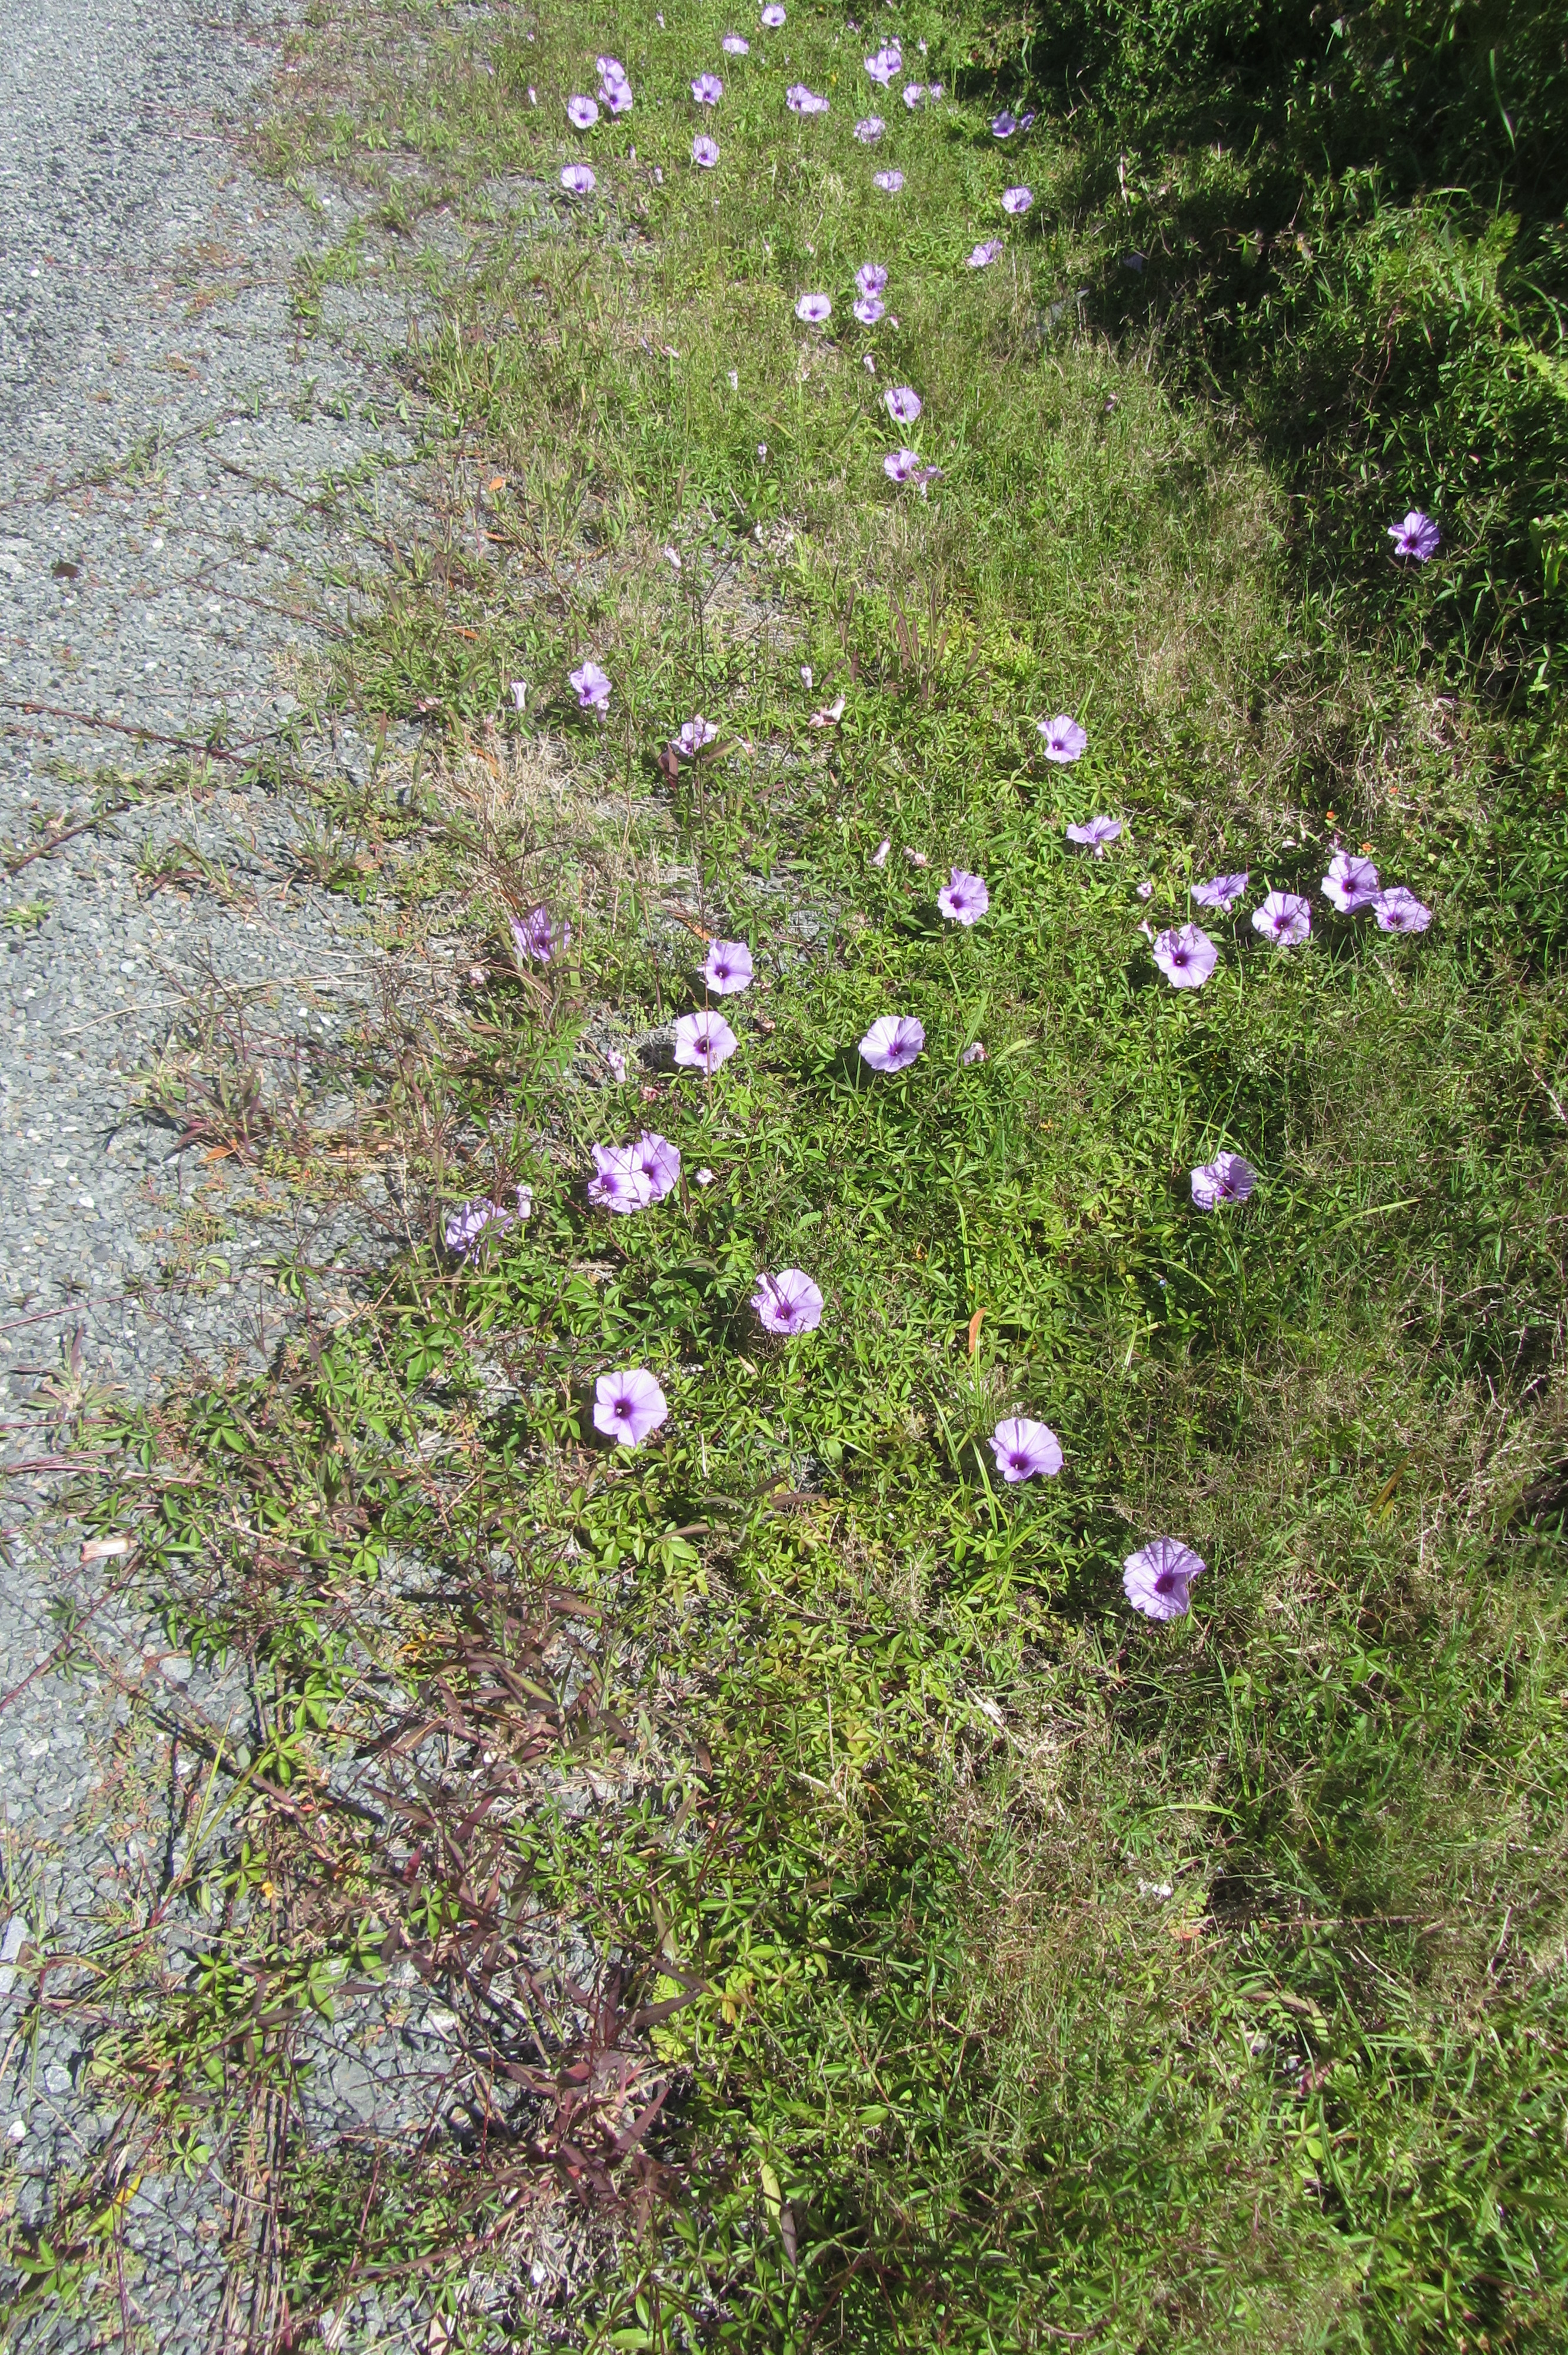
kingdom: Plantae
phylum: Tracheophyta
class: Magnoliopsida
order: Solanales
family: Convolvulaceae
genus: Ipomoea
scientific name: Ipomoea cairica
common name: Mile a minute vine
